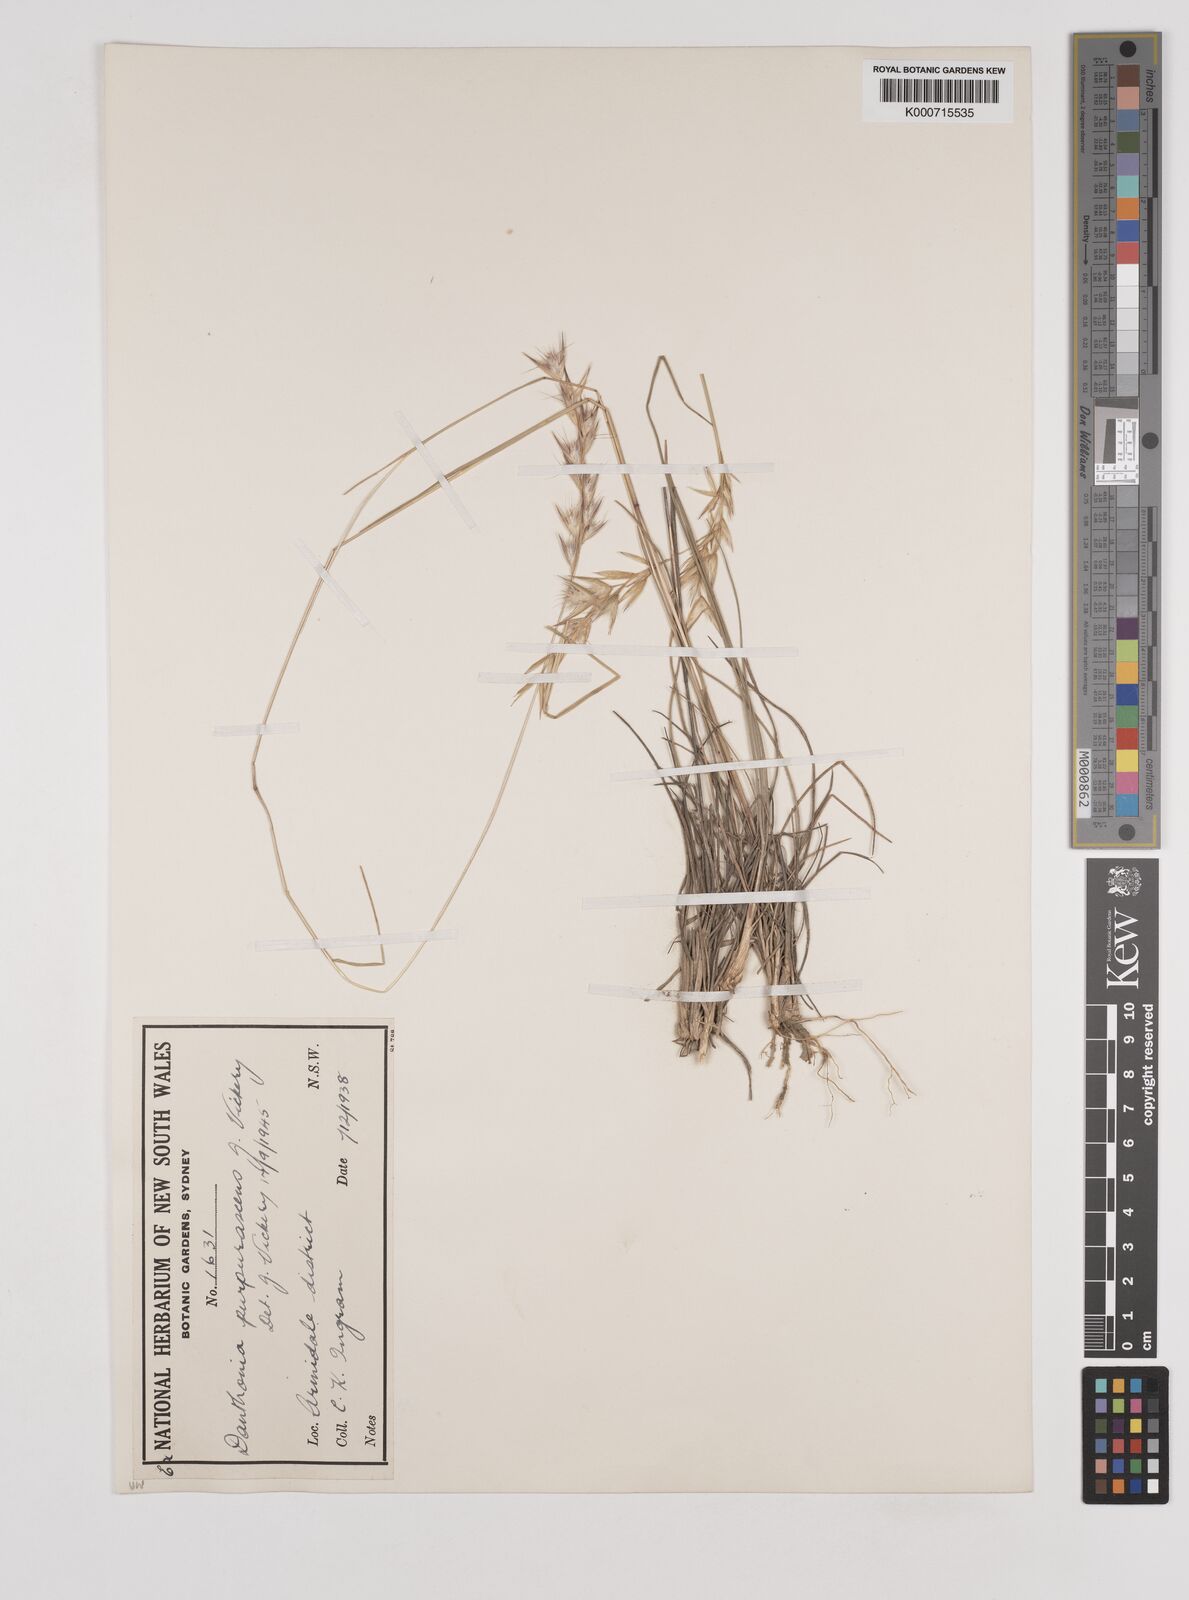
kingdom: Plantae
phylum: Tracheophyta
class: Liliopsida
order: Poales
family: Poaceae
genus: Rytidosperma
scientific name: Rytidosperma tenuius
